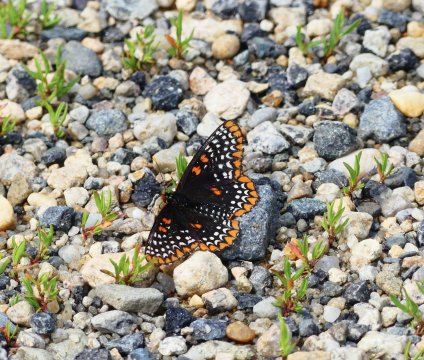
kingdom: Animalia
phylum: Arthropoda
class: Insecta
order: Lepidoptera
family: Nymphalidae
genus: Euphydryas
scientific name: Euphydryas phaeton
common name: Baltimore Checkerspot
